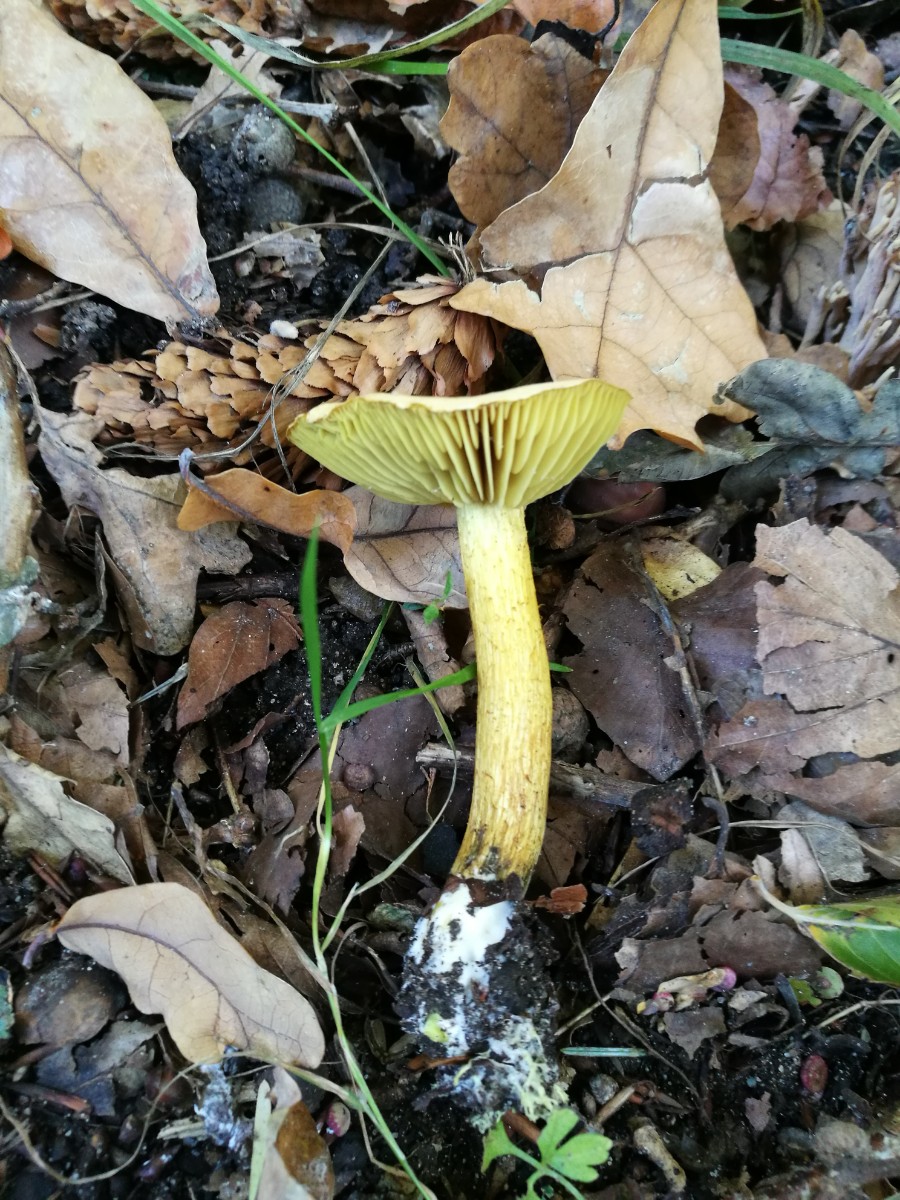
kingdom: Fungi
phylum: Basidiomycota
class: Agaricomycetes
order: Agaricales
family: Tricholomataceae
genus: Tricholoma
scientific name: Tricholoma sulphureum
